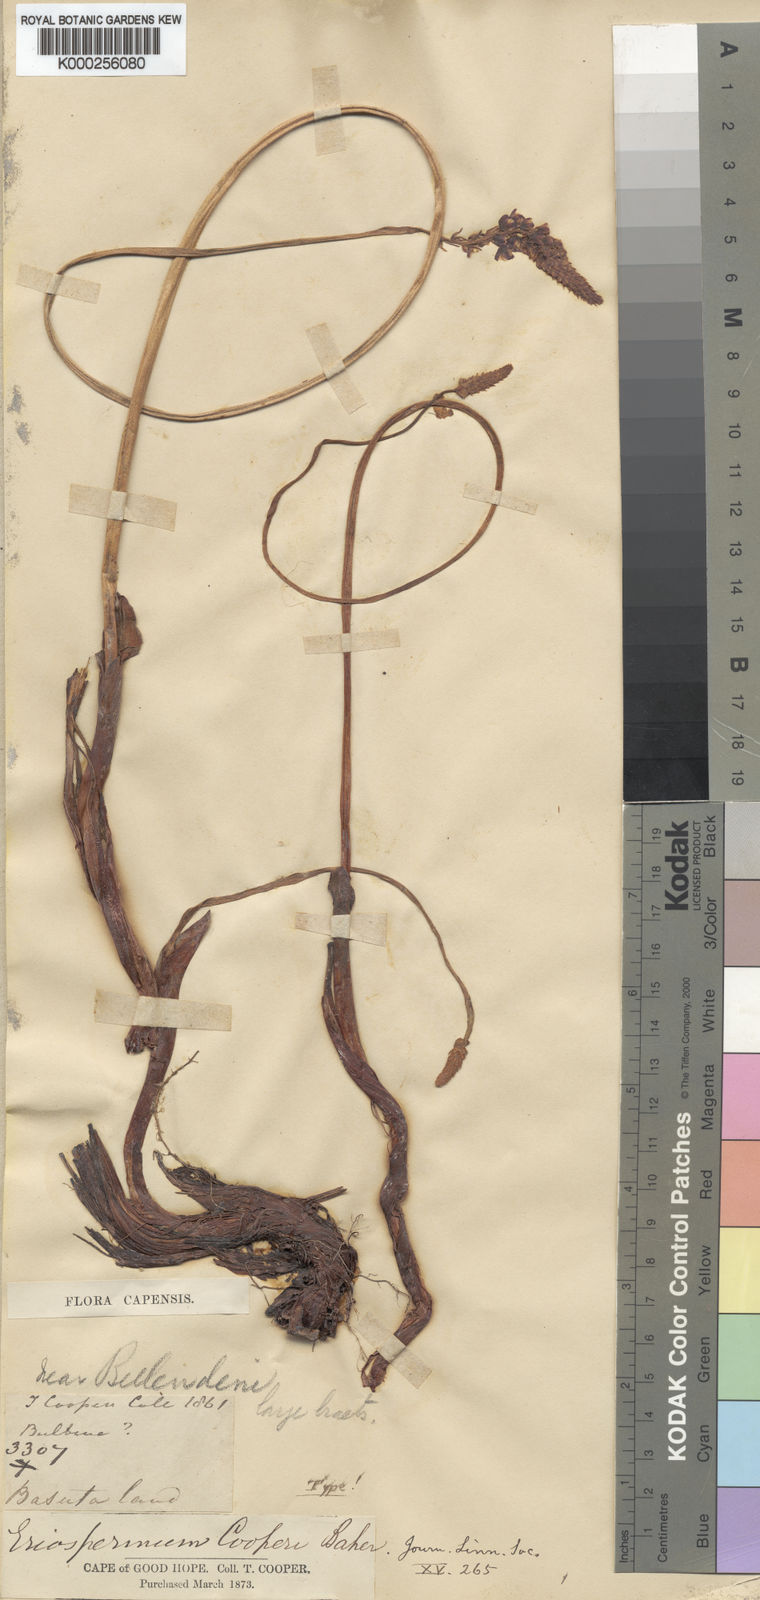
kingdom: Plantae
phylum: Tracheophyta
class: Liliopsida
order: Asparagales
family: Asparagaceae
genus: Eriospermum
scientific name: Eriospermum cooperi
